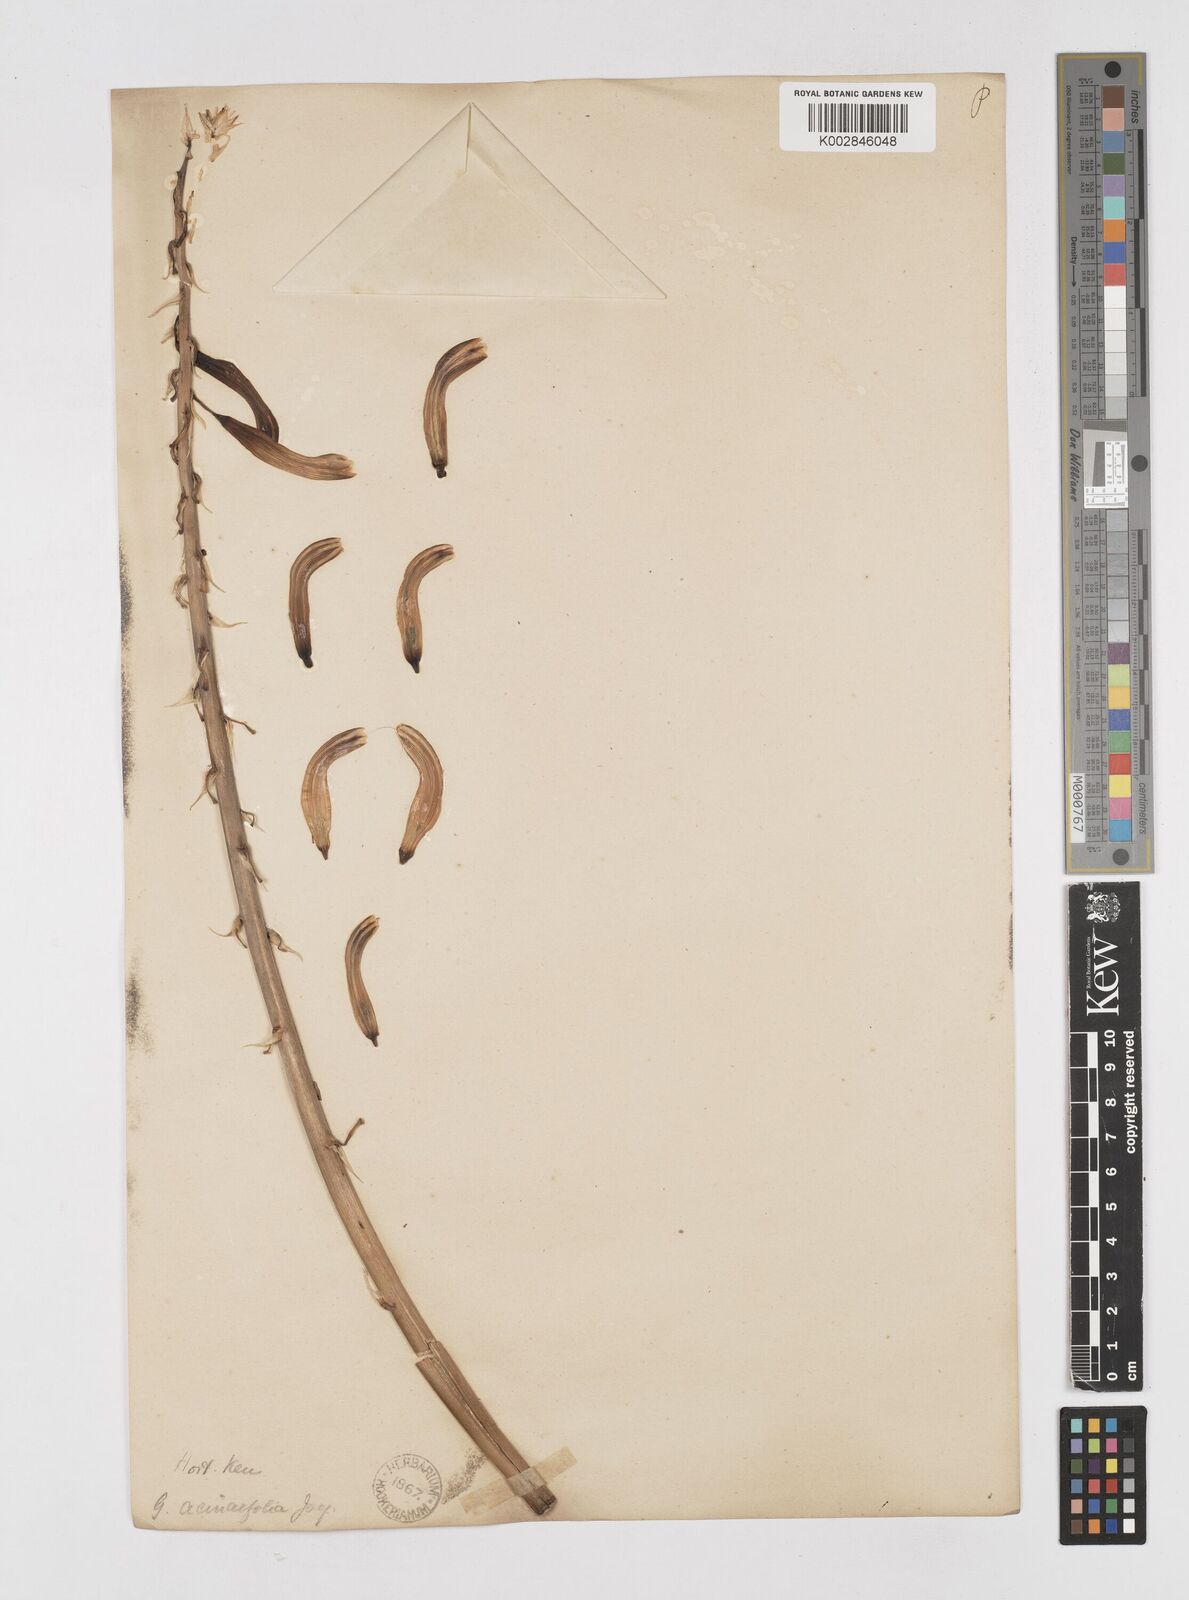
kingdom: Plantae
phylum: Tracheophyta
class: Liliopsida
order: Asparagales
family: Asphodelaceae
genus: Gasteria
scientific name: Gasteria acinacifolia
